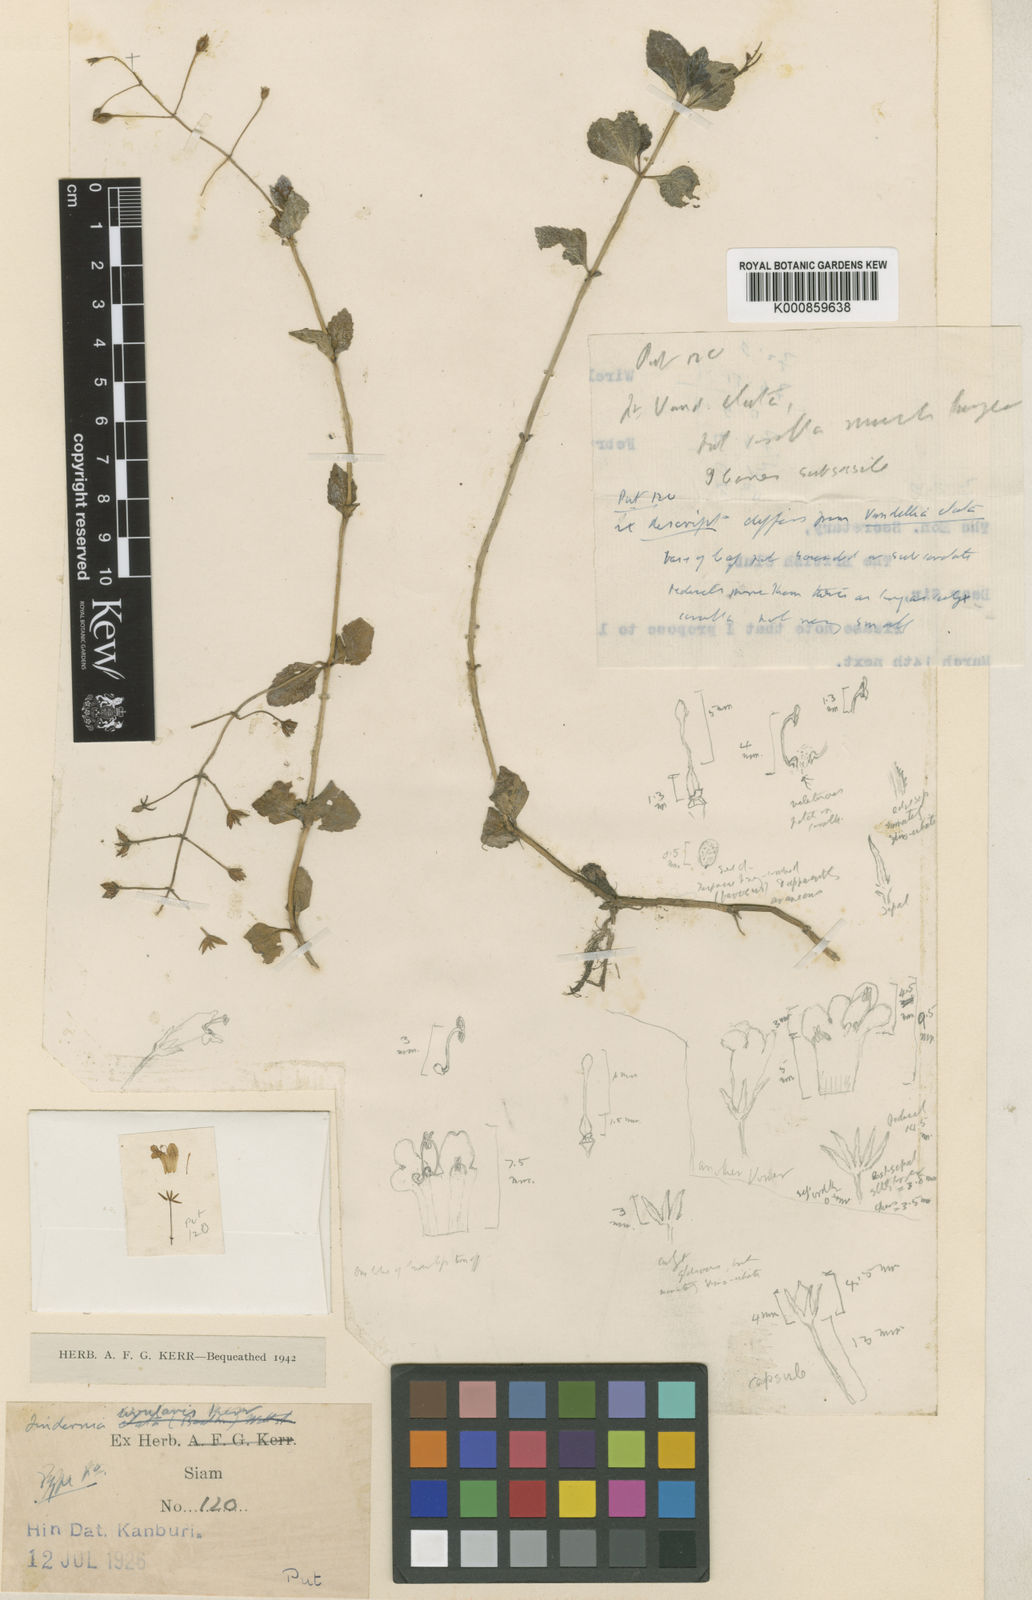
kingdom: Plantae
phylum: Tracheophyta
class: Magnoliopsida
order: Lamiales
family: Linderniaceae
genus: Vandellia
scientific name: Vandellia rivularis
